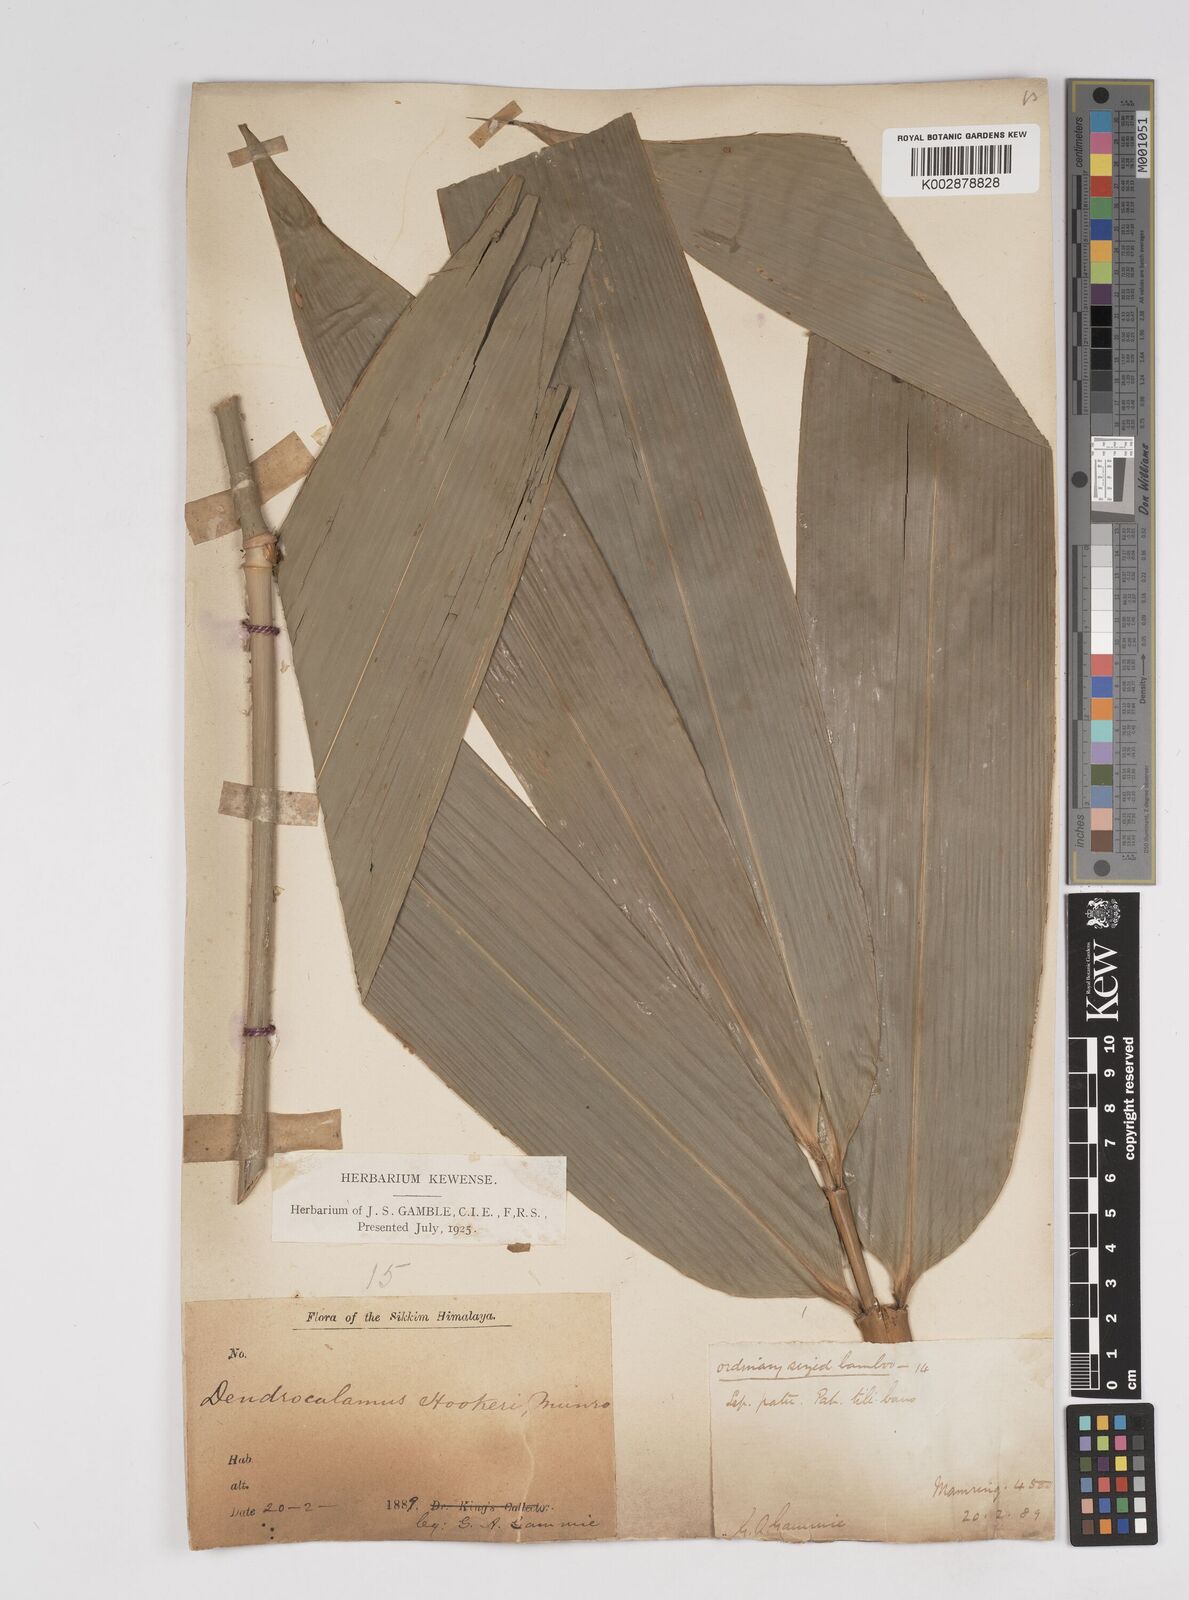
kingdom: Plantae
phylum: Tracheophyta
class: Liliopsida
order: Poales
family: Poaceae
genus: Dendrocalamus
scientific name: Dendrocalamus hookeri
